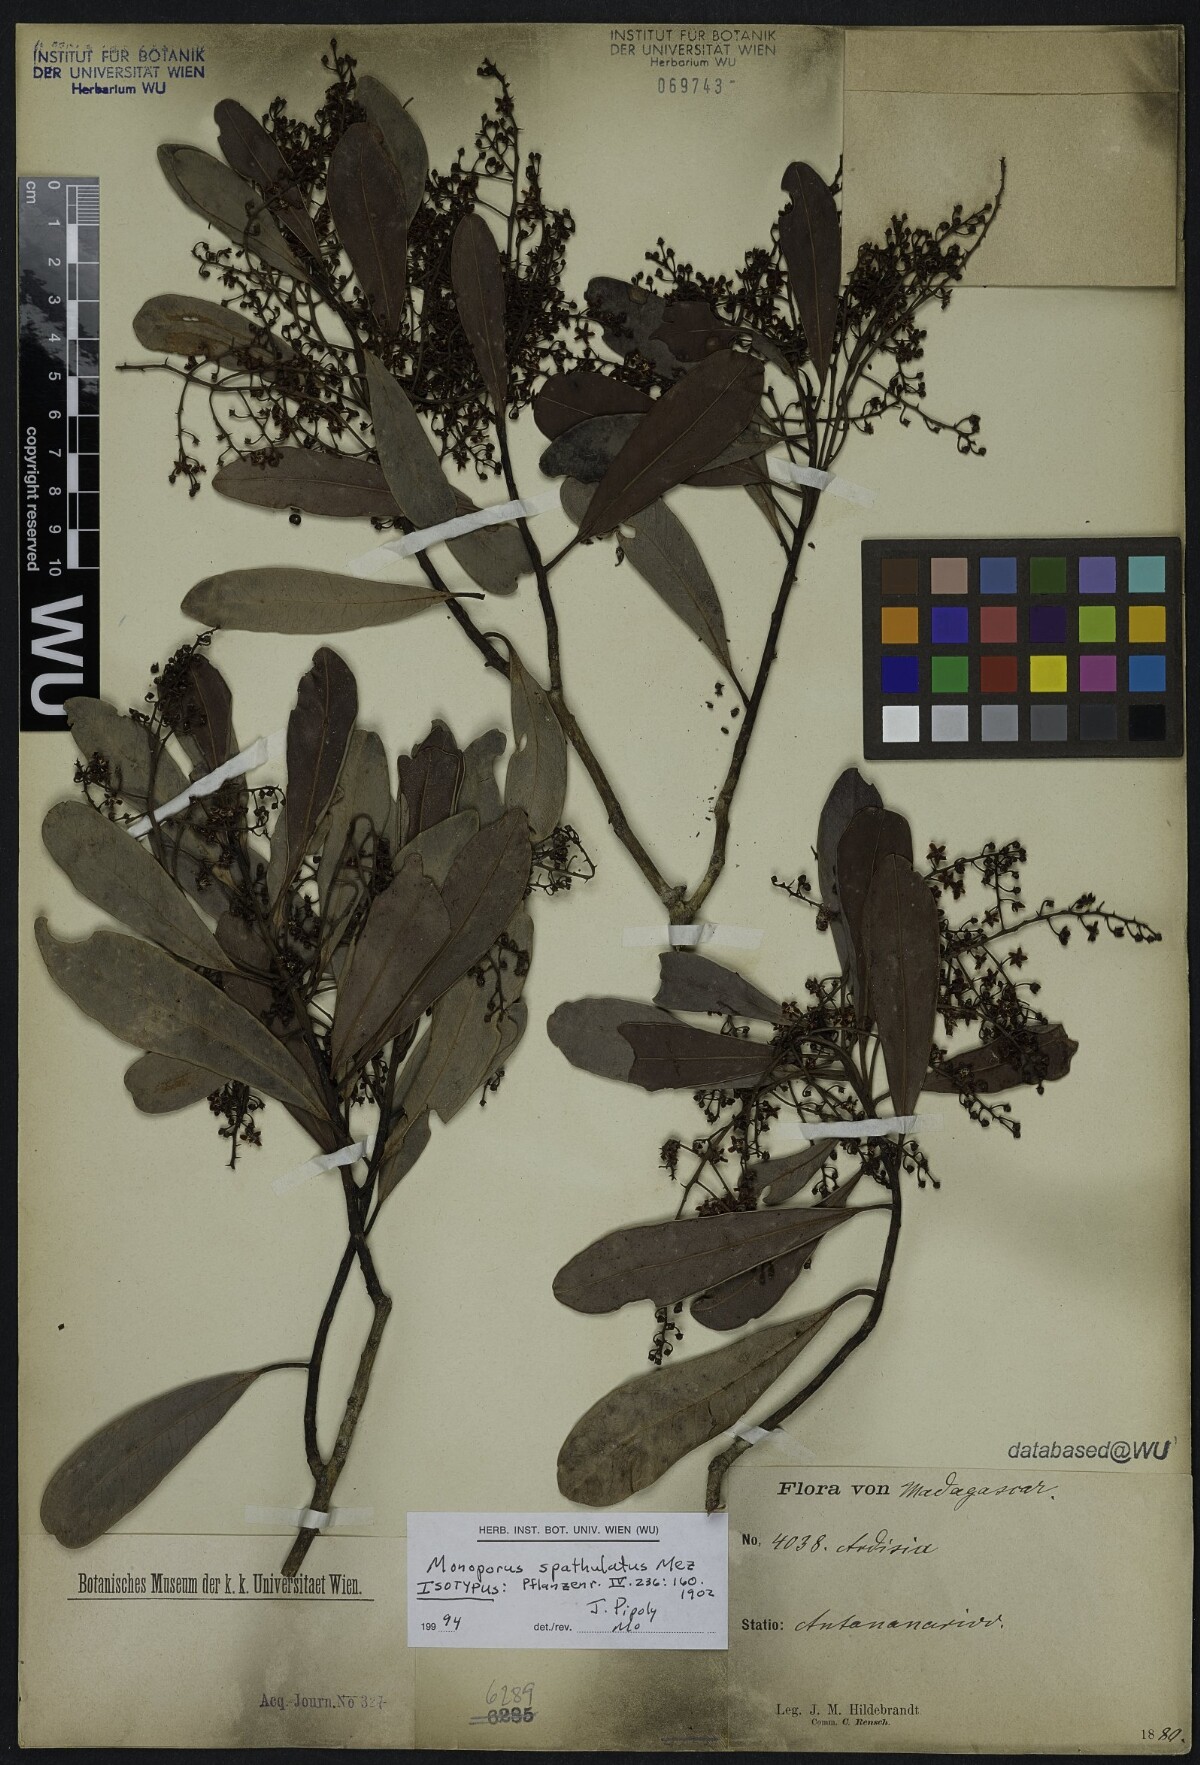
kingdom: Plantae
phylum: Tracheophyta
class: Magnoliopsida
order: Ericales
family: Primulaceae
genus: Monoporus
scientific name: Monoporus spathulatus
